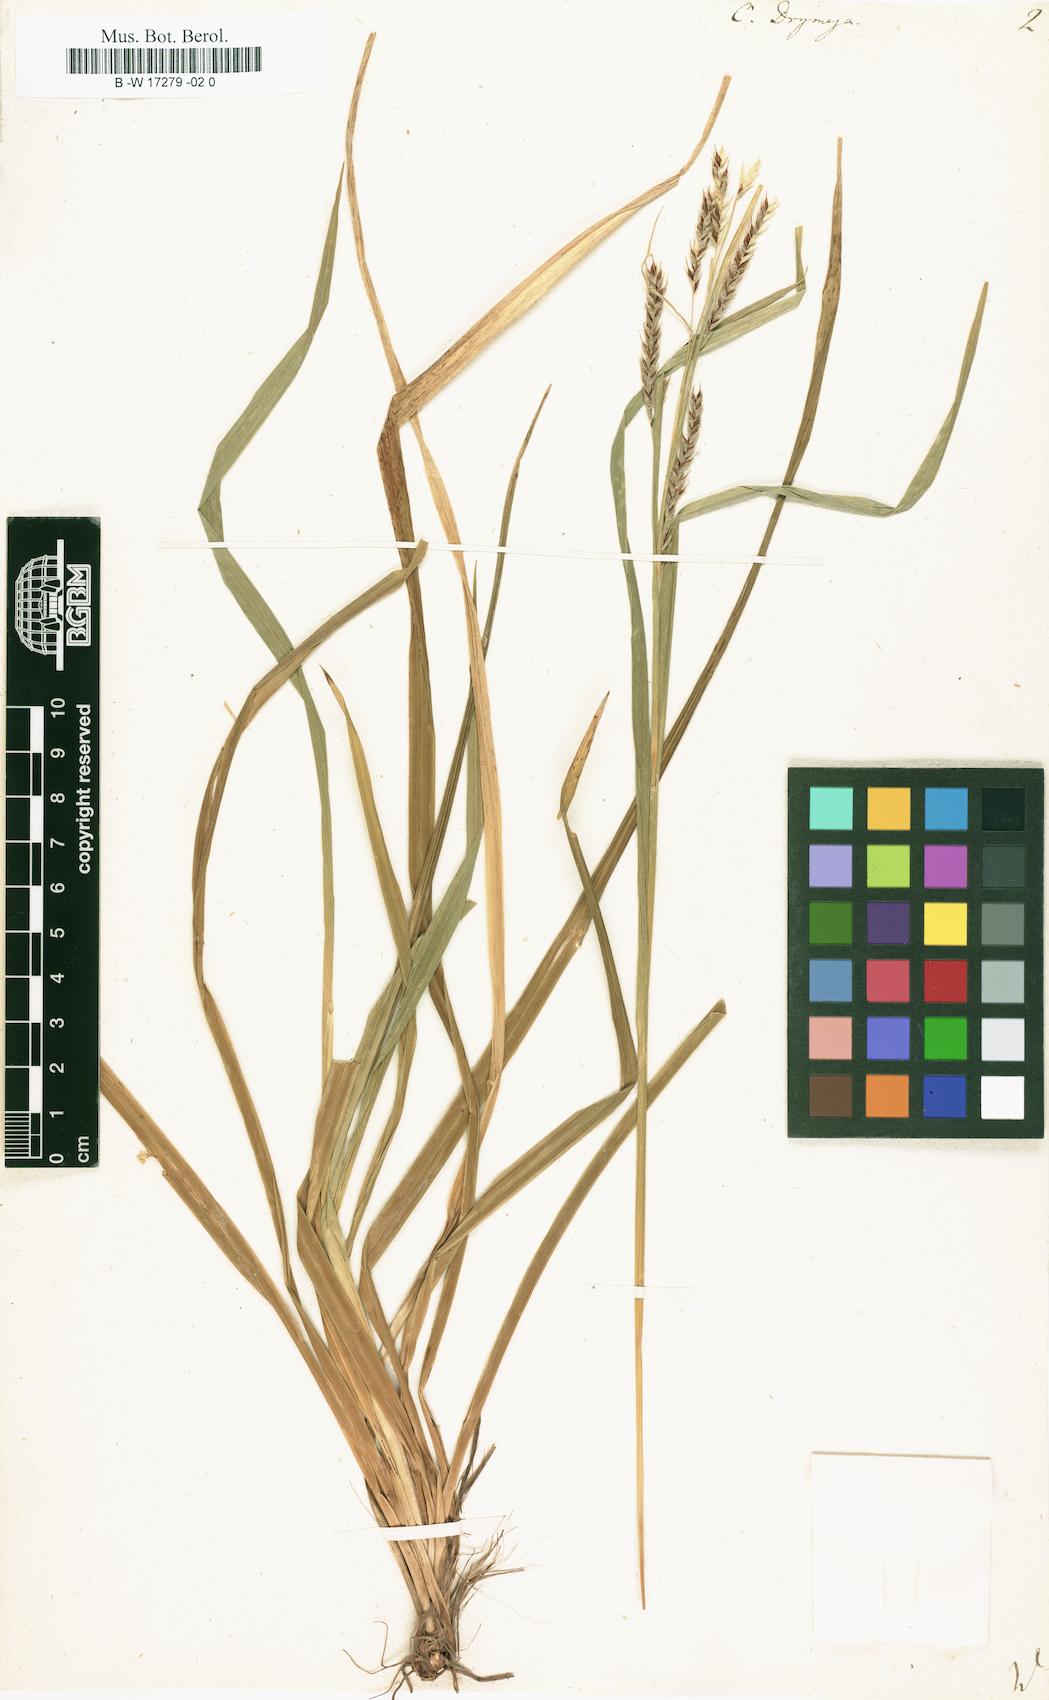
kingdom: Plantae
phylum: Tracheophyta
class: Liliopsida
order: Poales
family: Cyperaceae
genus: Carex
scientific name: Carex sylvatica
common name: Wood-sedge
